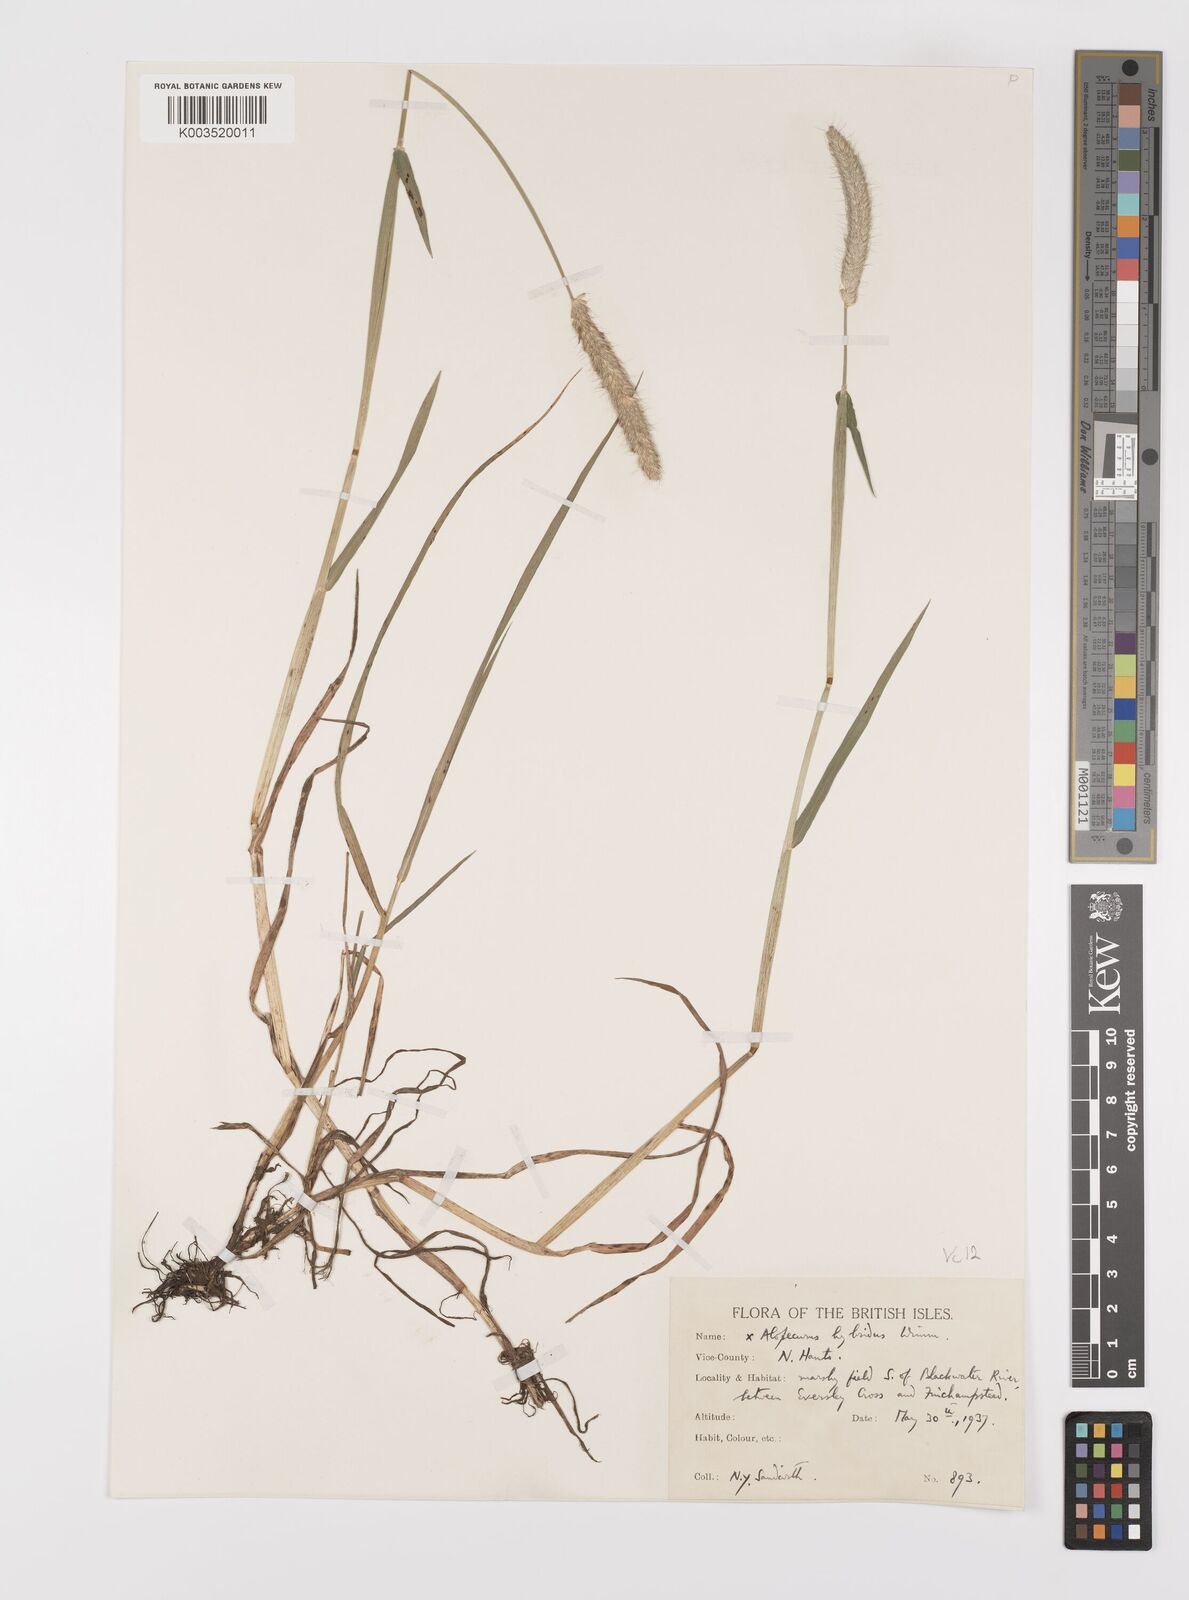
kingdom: Plantae
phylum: Tracheophyta
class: Liliopsida
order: Poales
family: Poaceae
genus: Alopecurus
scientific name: Alopecurus brachystylus
